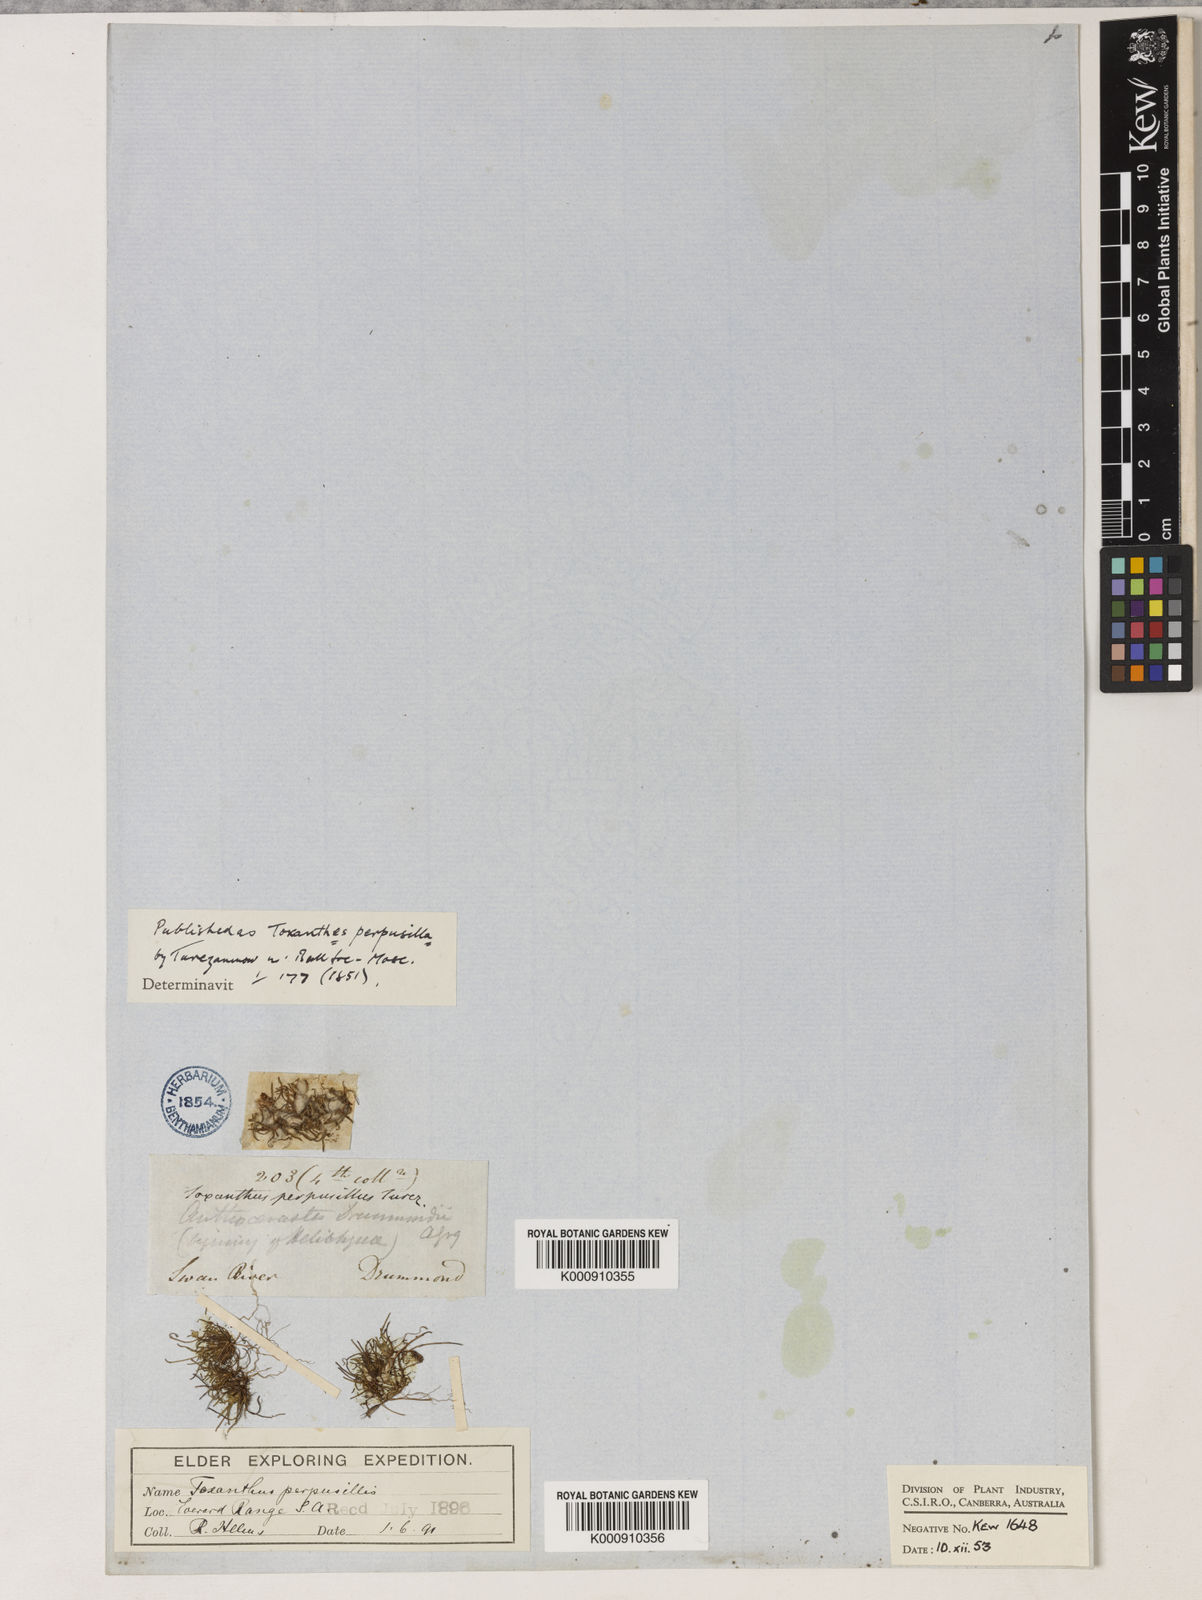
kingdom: Plantae
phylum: Tracheophyta
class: Magnoliopsida
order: Asterales
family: Asteraceae
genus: Millotia
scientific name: Millotia perpusilla
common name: Tiny bow-flower
